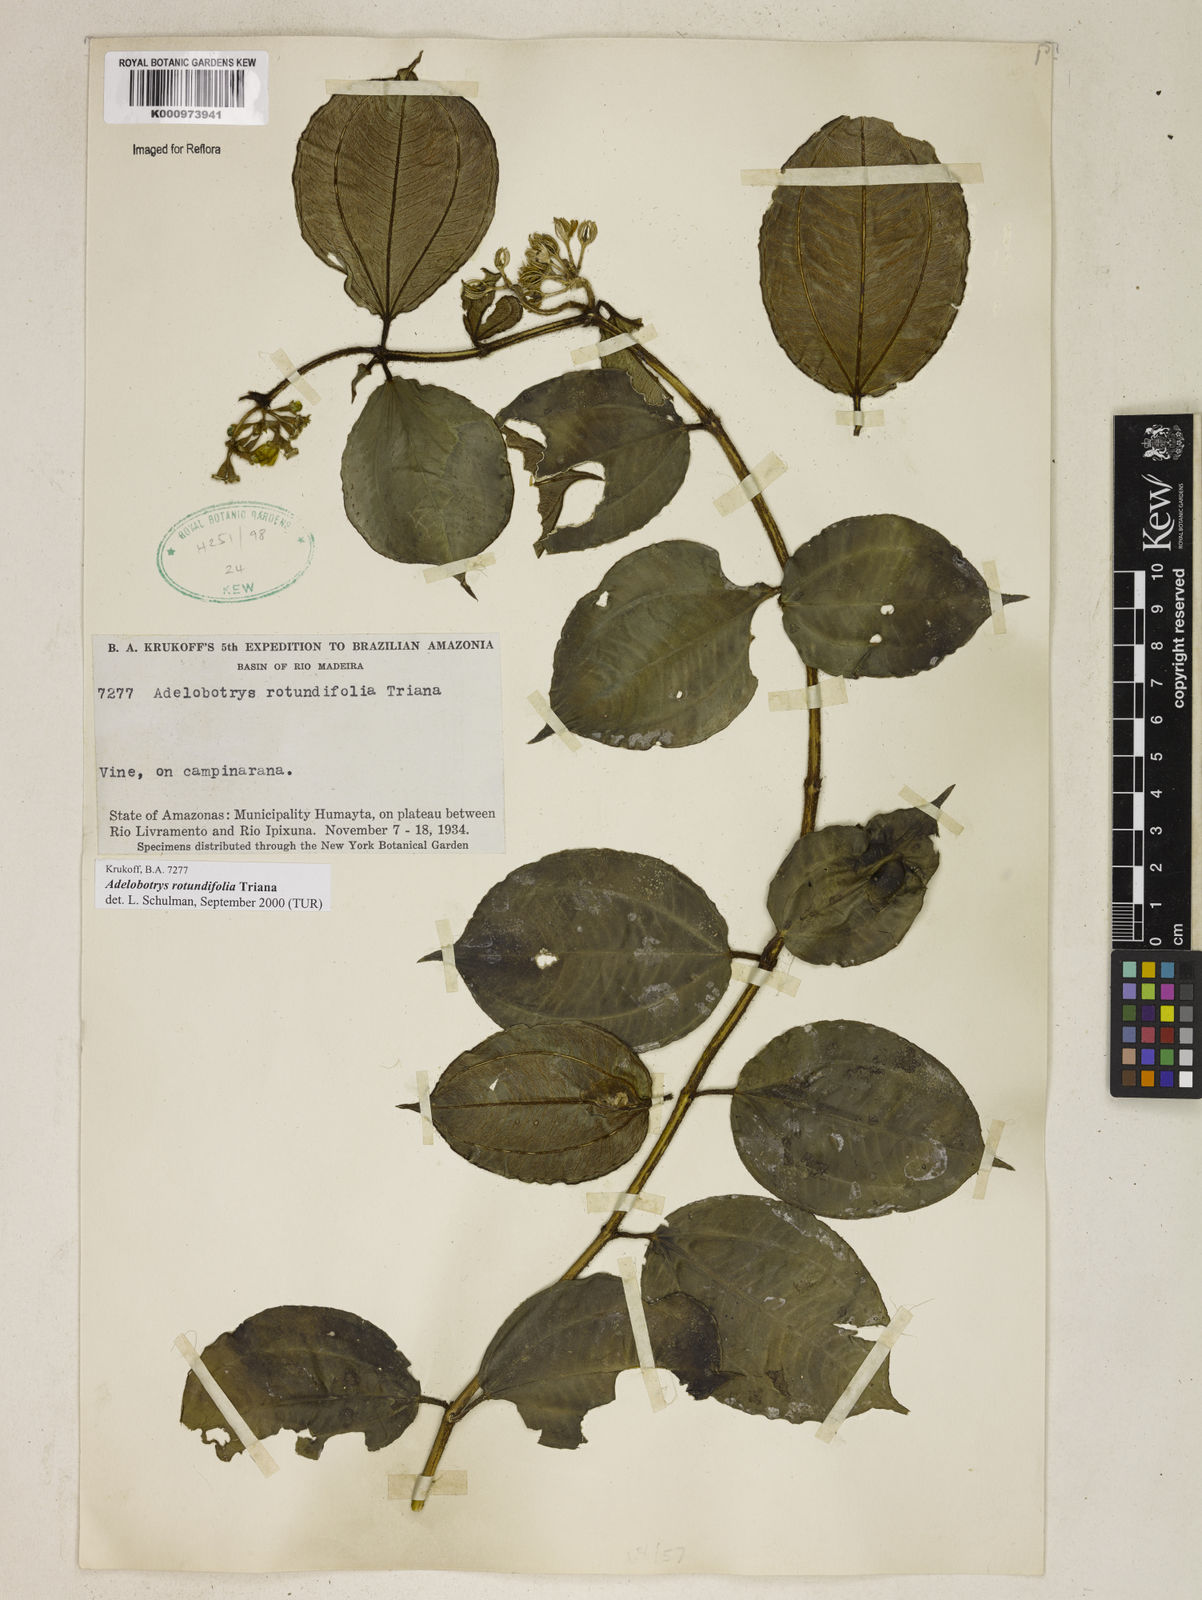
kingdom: Plantae
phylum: Tracheophyta
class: Magnoliopsida
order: Myrtales
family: Melastomataceae
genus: Adelobotrys
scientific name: Adelobotrys rotundifolius
